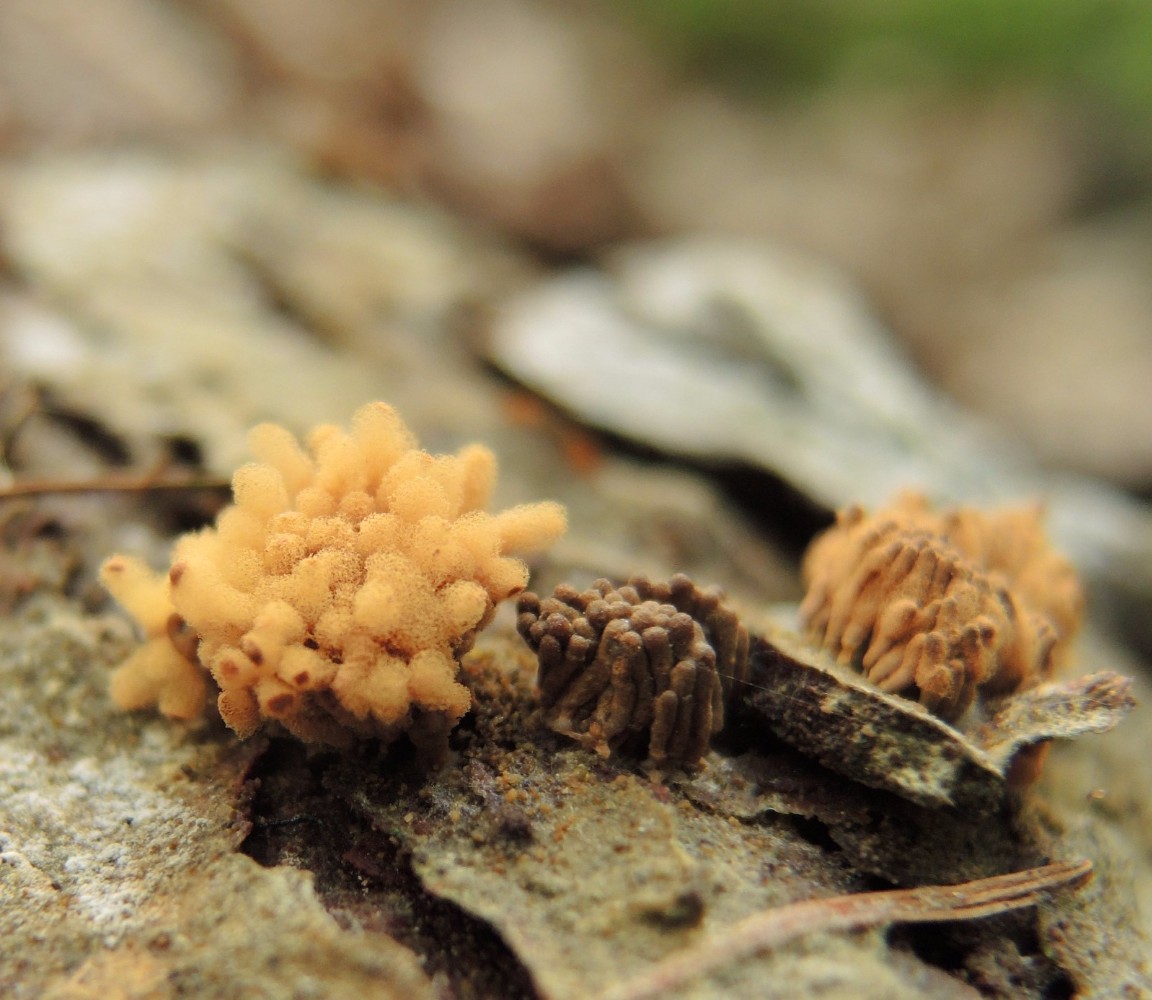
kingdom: Protozoa
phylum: Mycetozoa
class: Myxomycetes
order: Trichiales
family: Arcyriaceae
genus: Arcyria
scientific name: Arcyria obvelata
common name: okkergul skålsvøb
